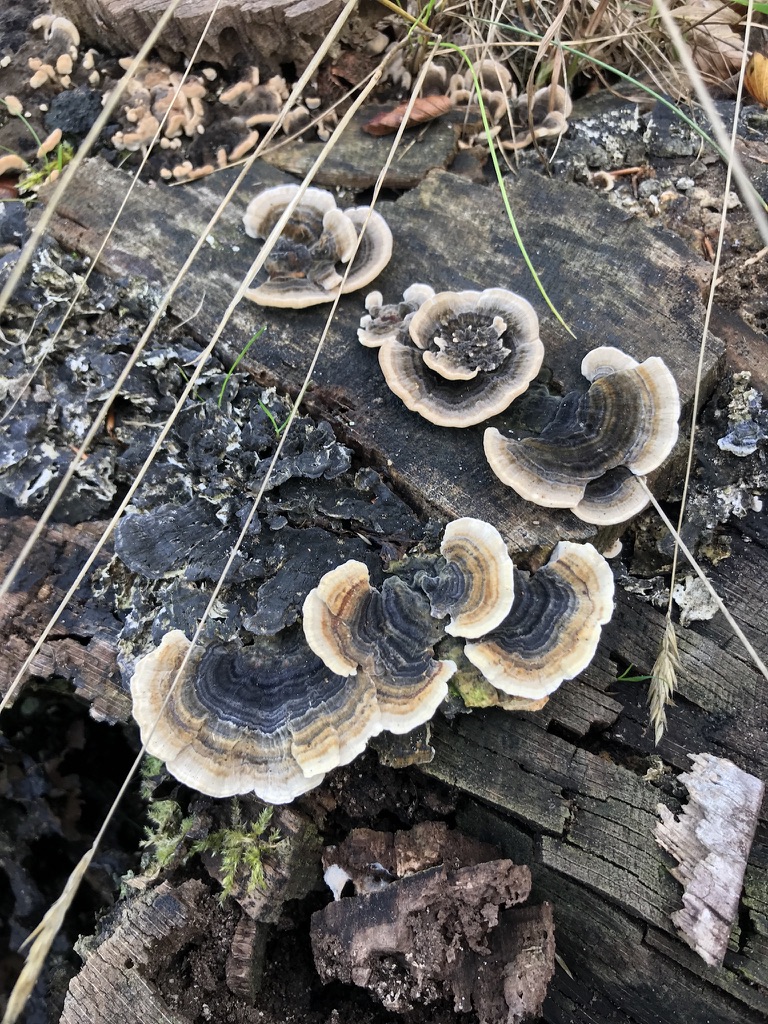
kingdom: Fungi
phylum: Basidiomycota
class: Agaricomycetes
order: Polyporales
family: Polyporaceae
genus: Trametes
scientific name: Trametes versicolor
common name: broget læderporesvamp
